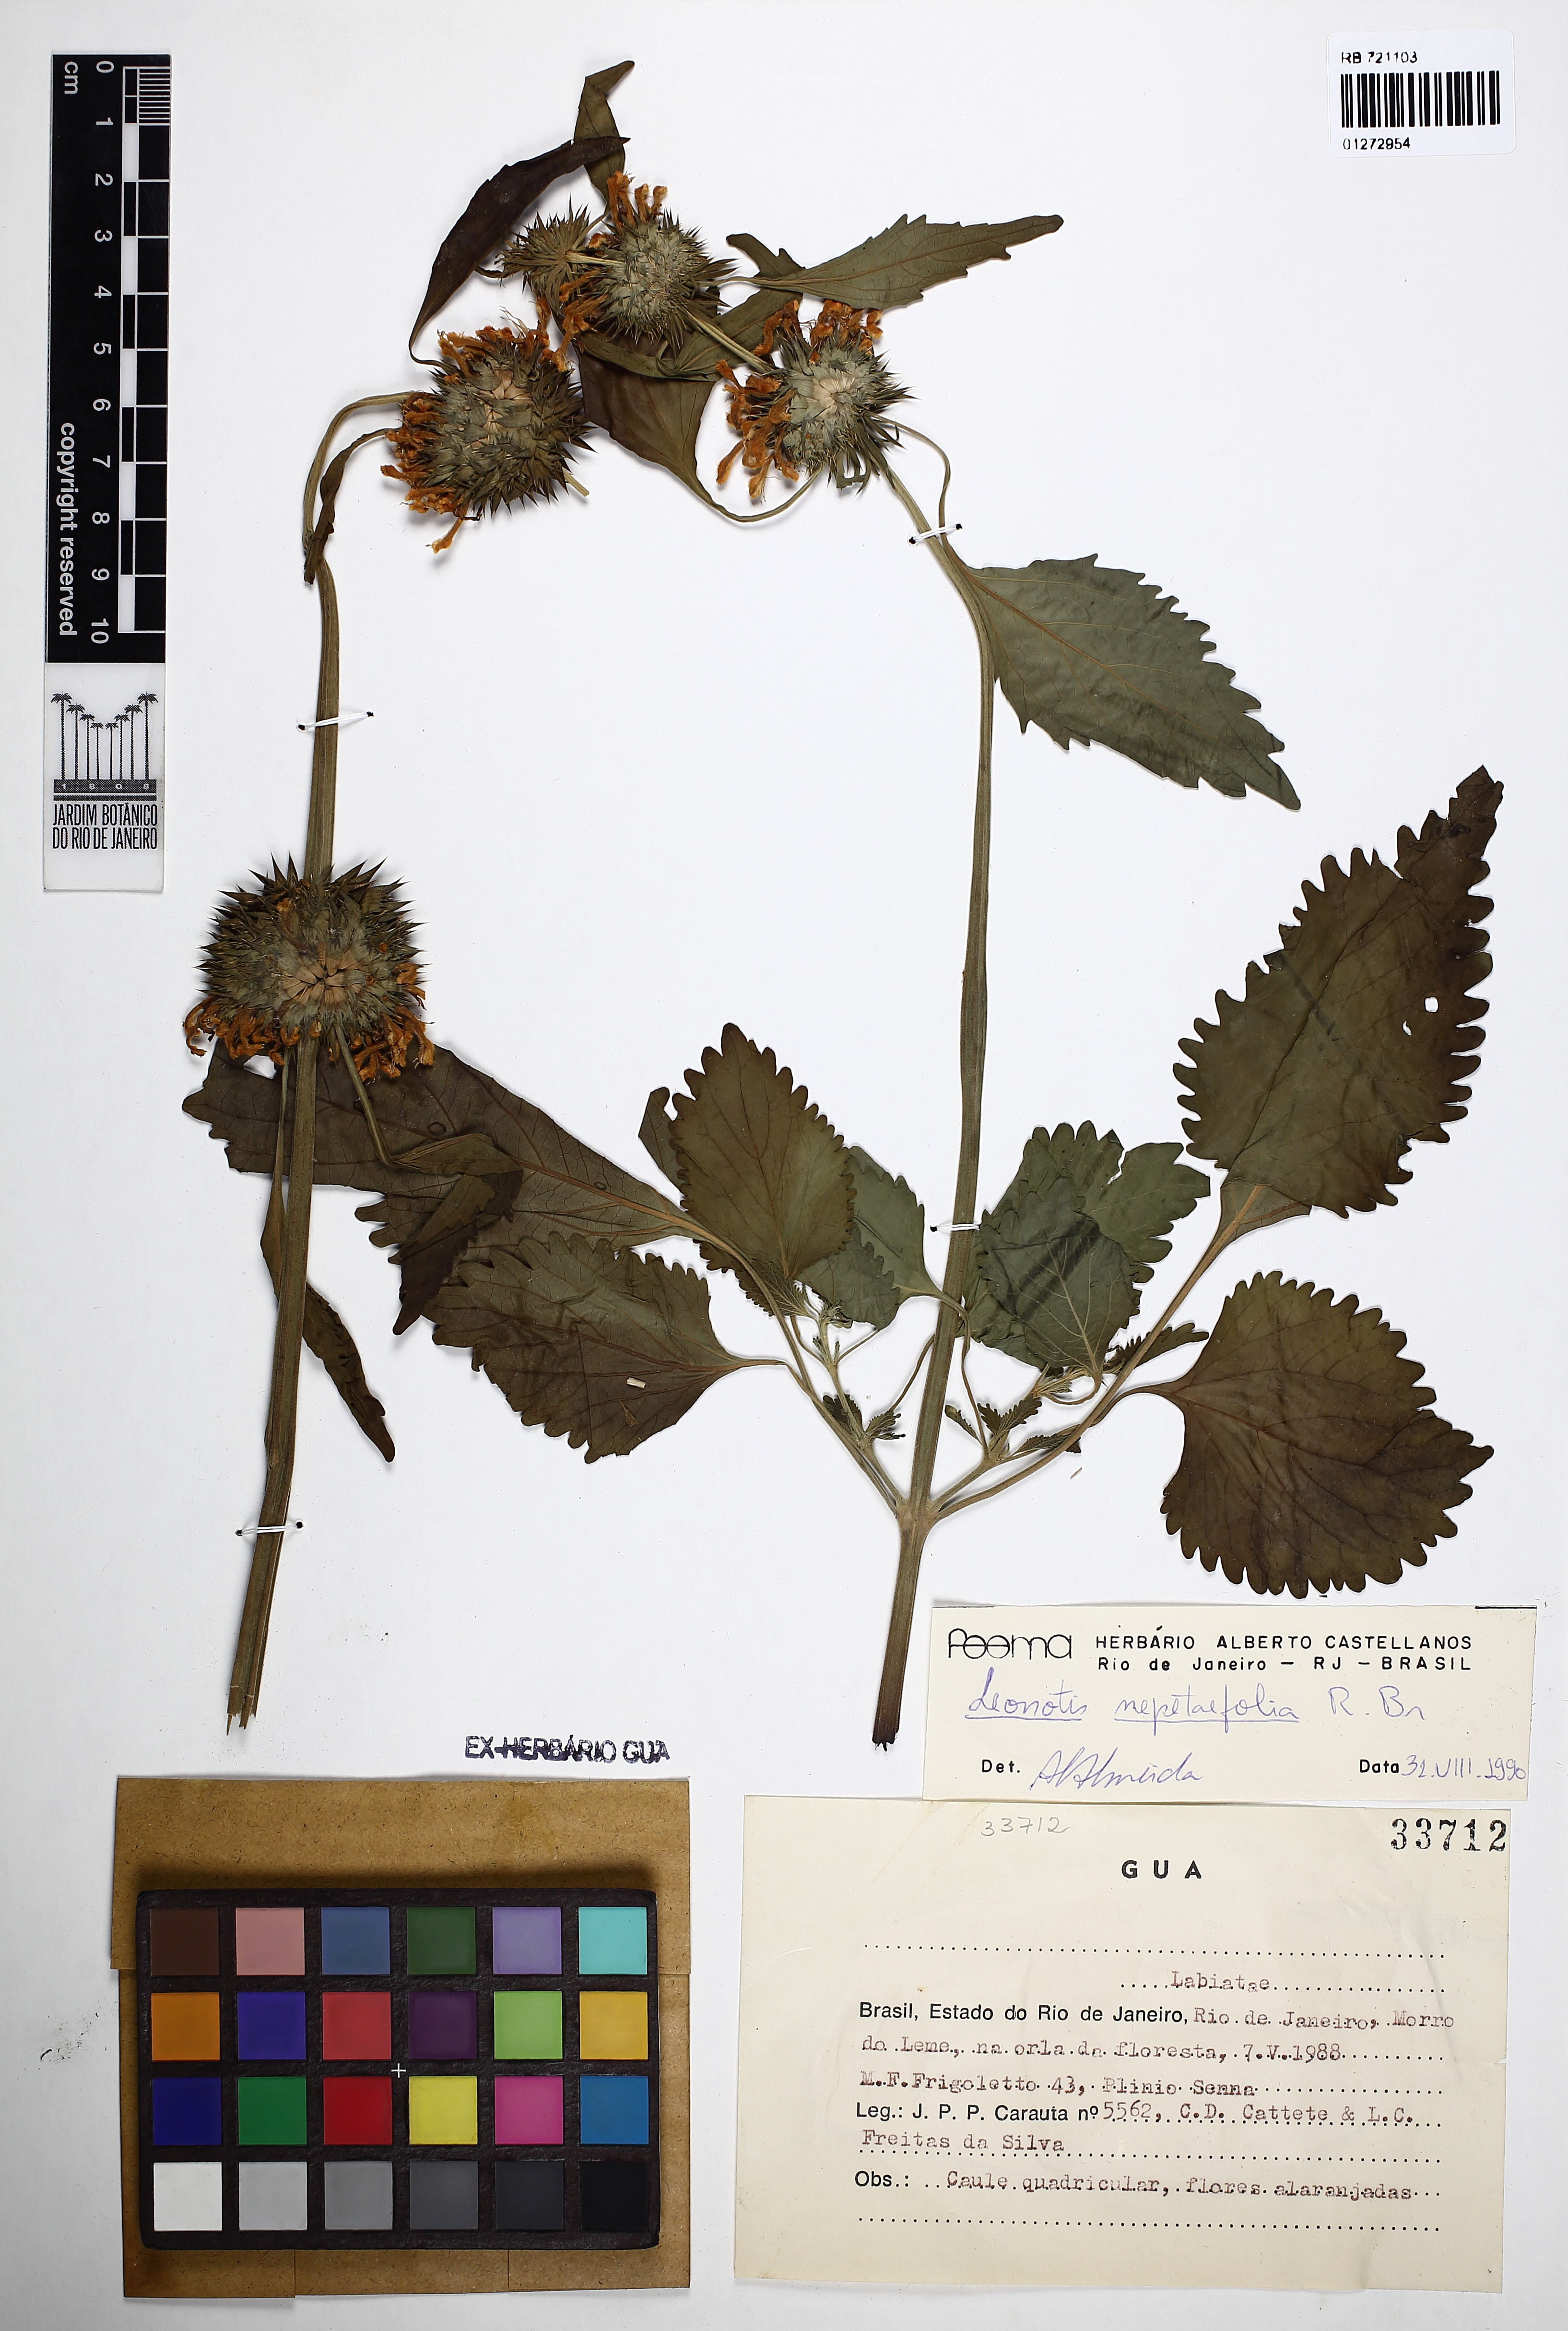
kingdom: Plantae
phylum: Tracheophyta
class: Magnoliopsida
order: Lamiales
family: Lamiaceae
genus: Leonotis
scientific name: Leonotis nepetifolia
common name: Christmas candlestick
